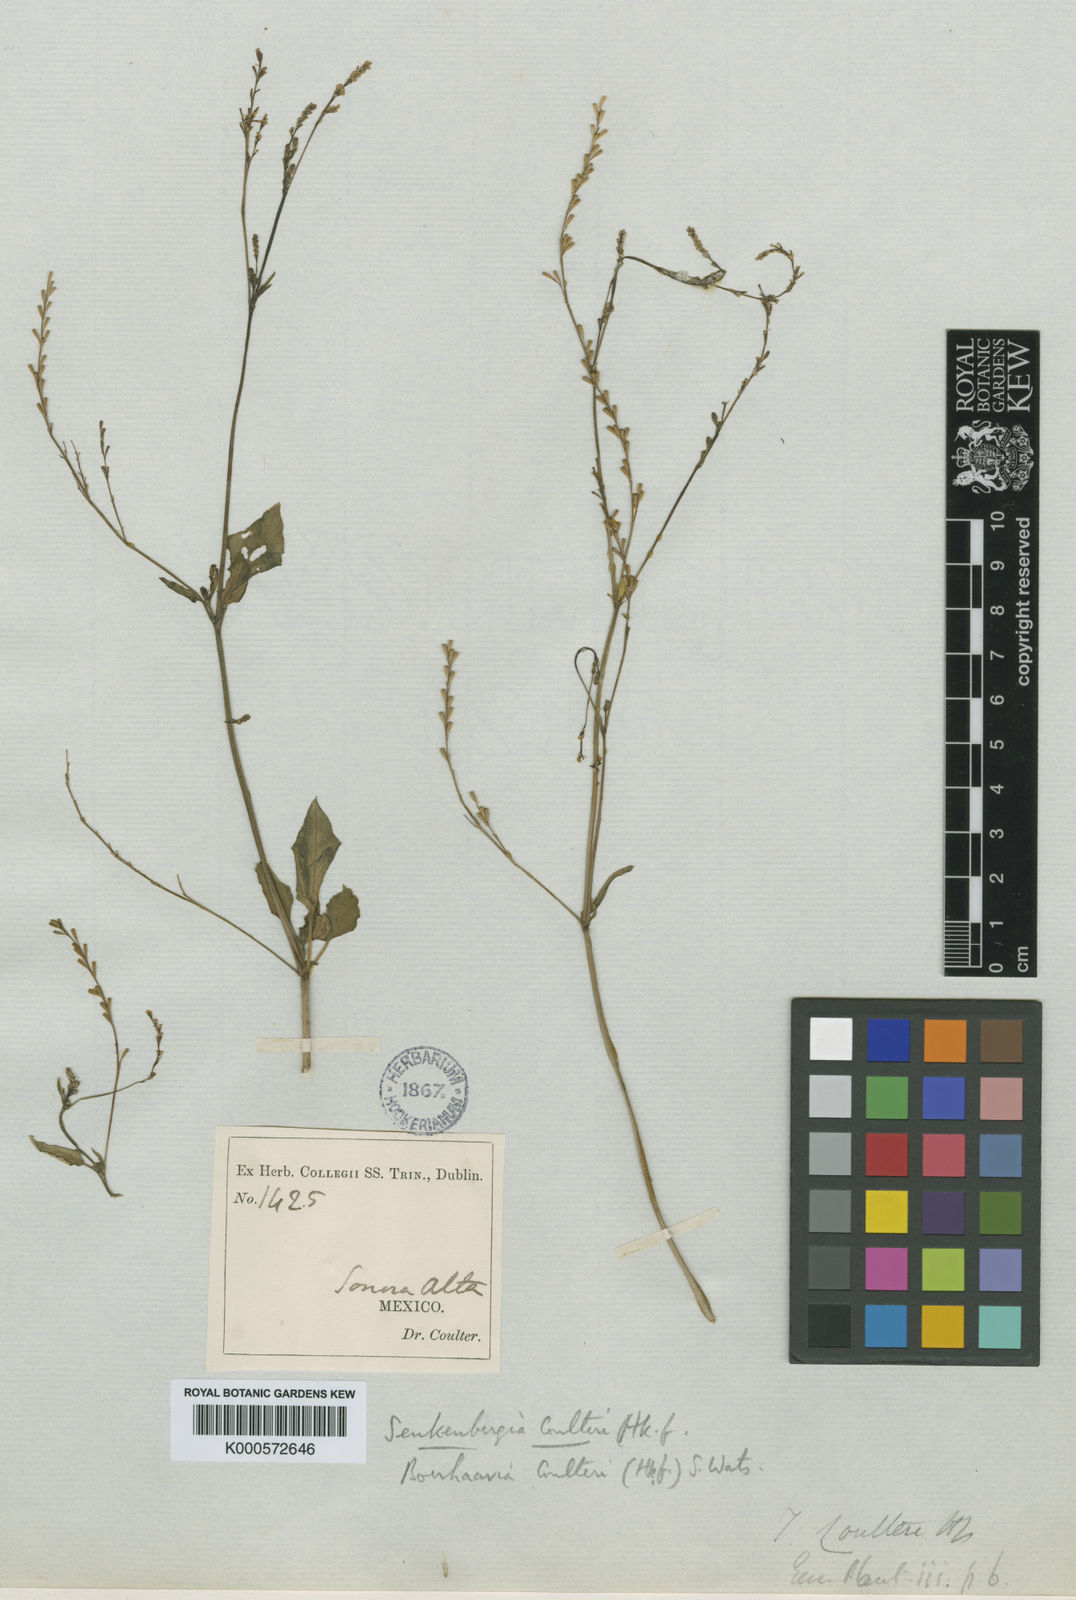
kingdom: Plantae
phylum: Tracheophyta
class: Magnoliopsida
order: Caryophyllales
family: Nyctaginaceae
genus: Boerhavia
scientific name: Boerhavia coulteri
